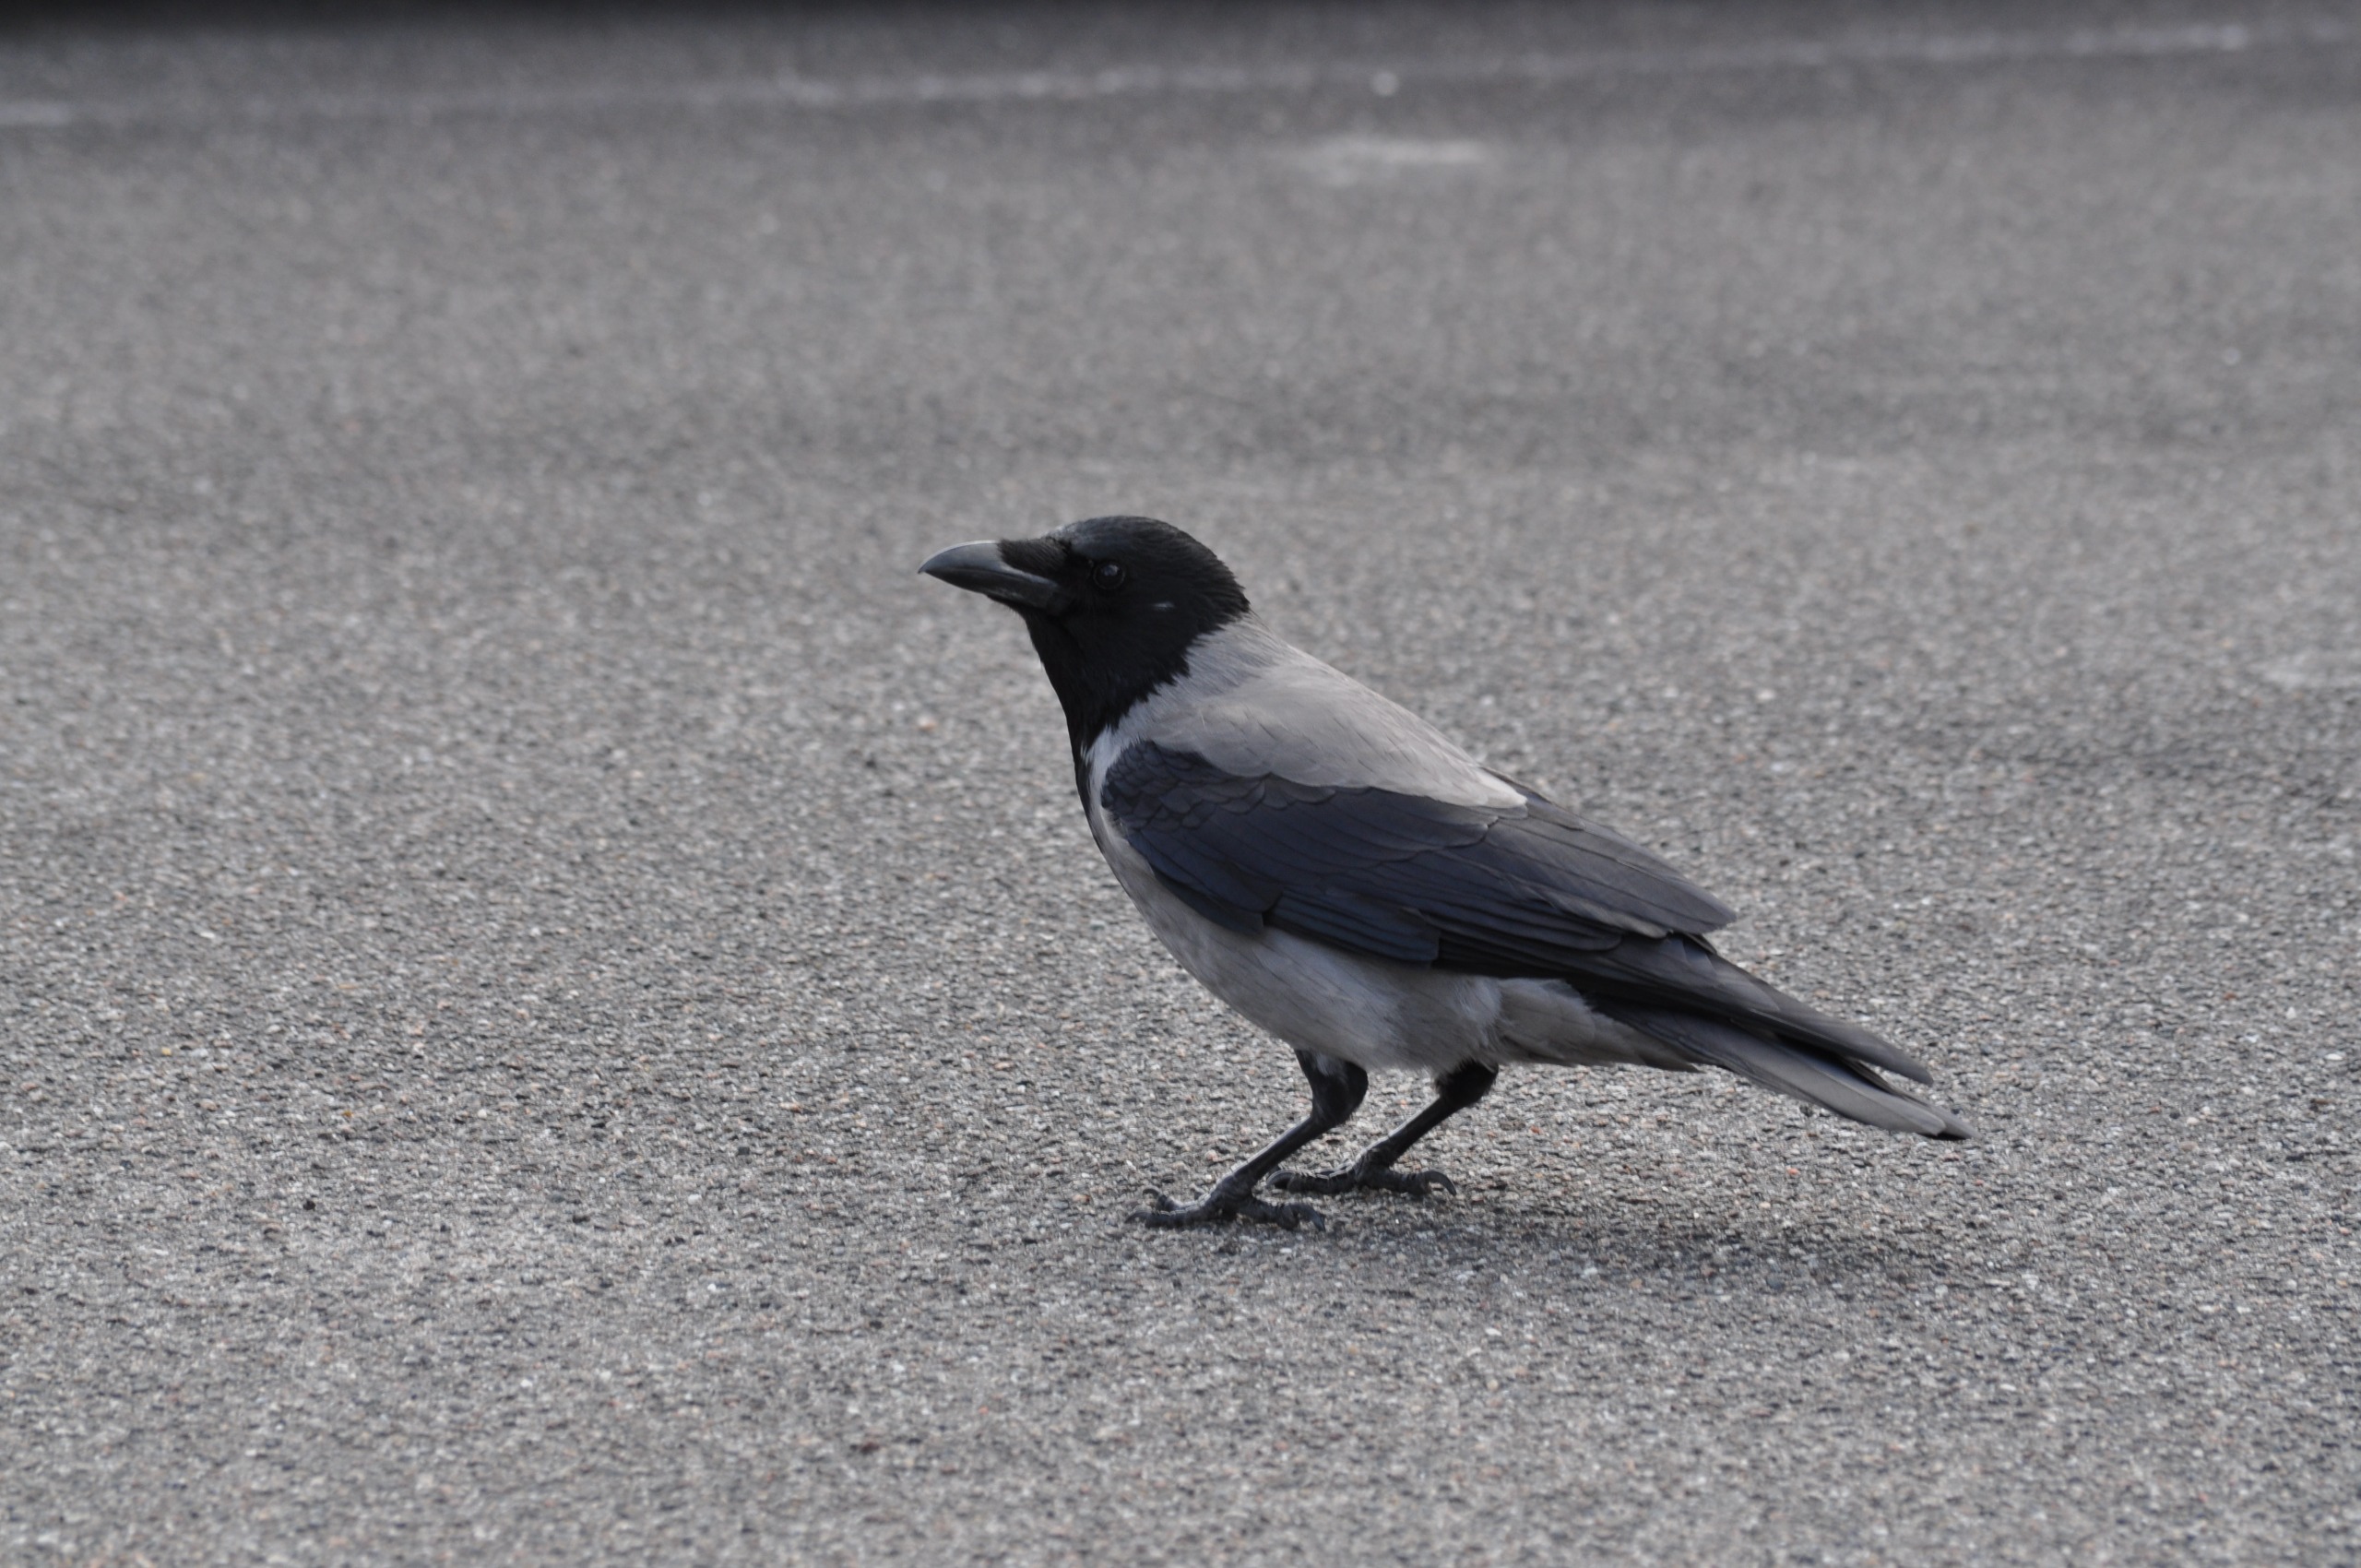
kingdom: Animalia
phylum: Chordata
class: Aves
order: Passeriformes
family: Corvidae
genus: Corvus
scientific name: Corvus cornix
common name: Gråkrage
